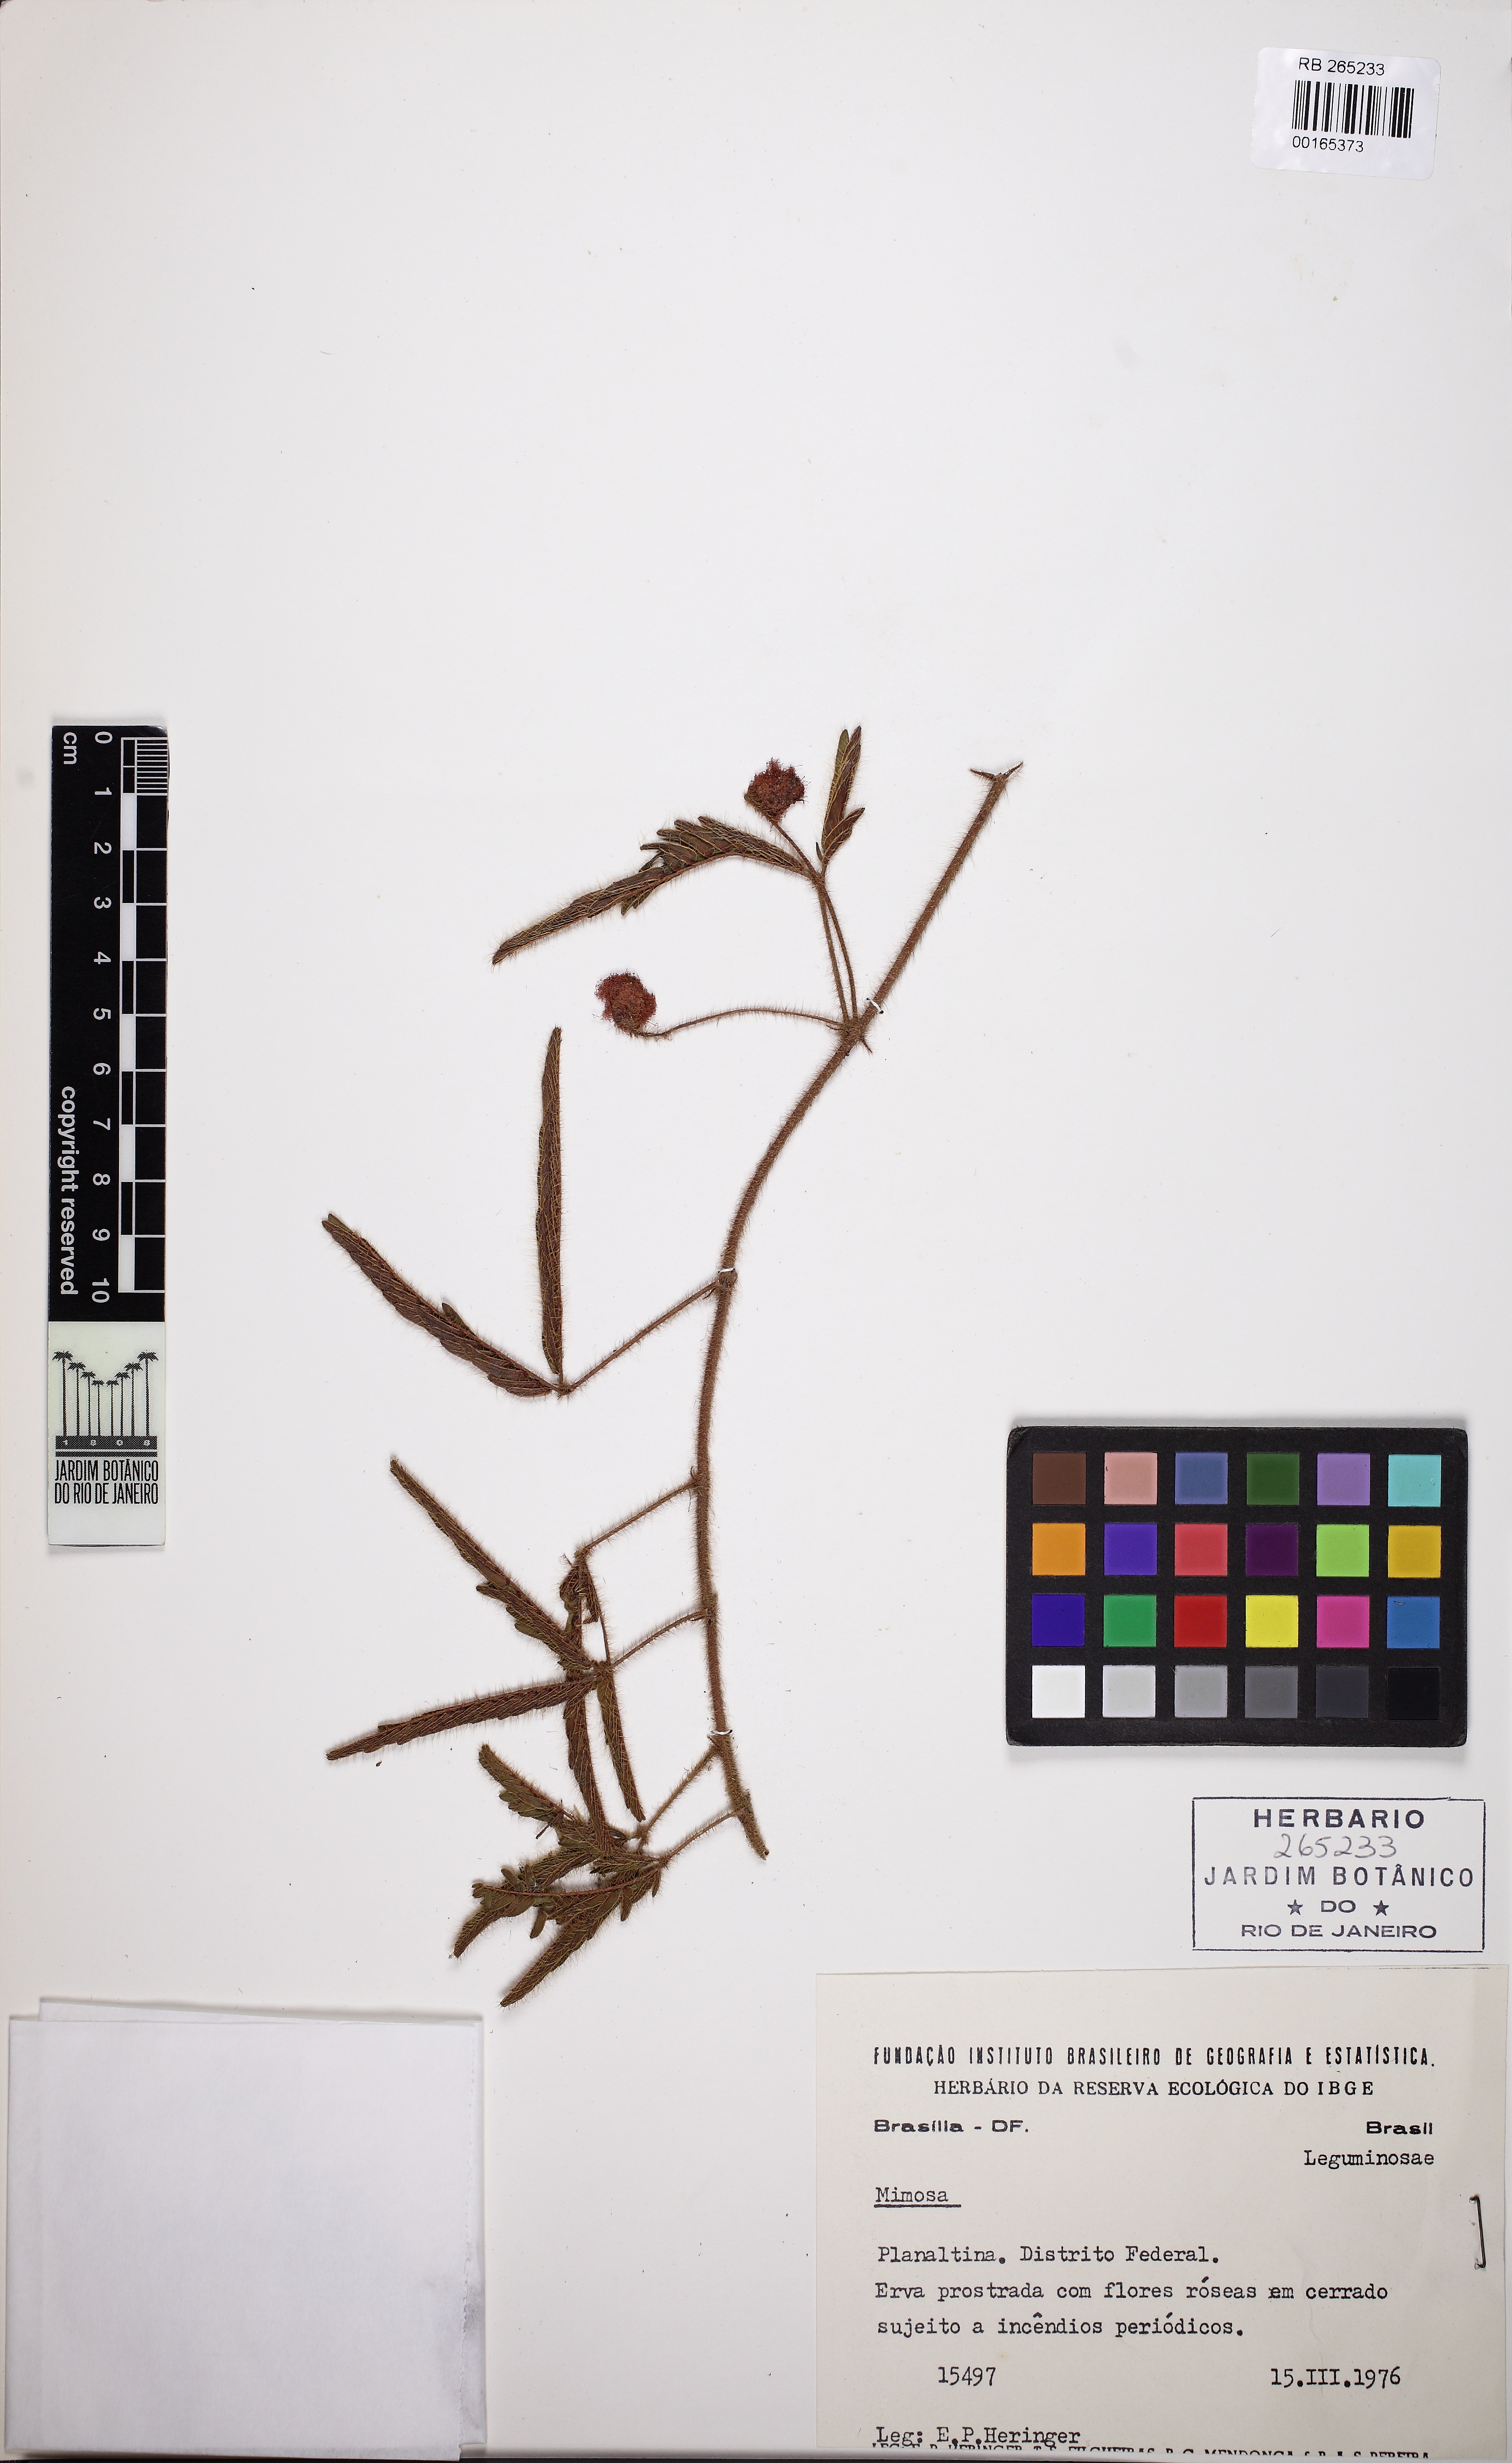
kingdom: Plantae
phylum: Tracheophyta
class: Magnoliopsida
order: Fabales
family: Fabaceae
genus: Mimosa
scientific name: Mimosa
